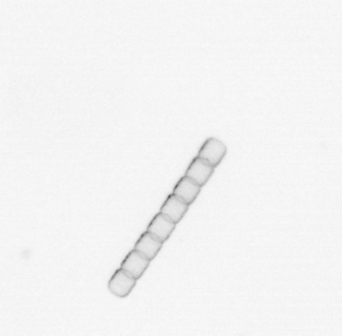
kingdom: Chromista
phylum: Ochrophyta
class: Bacillariophyceae
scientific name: Bacillariophyceae
